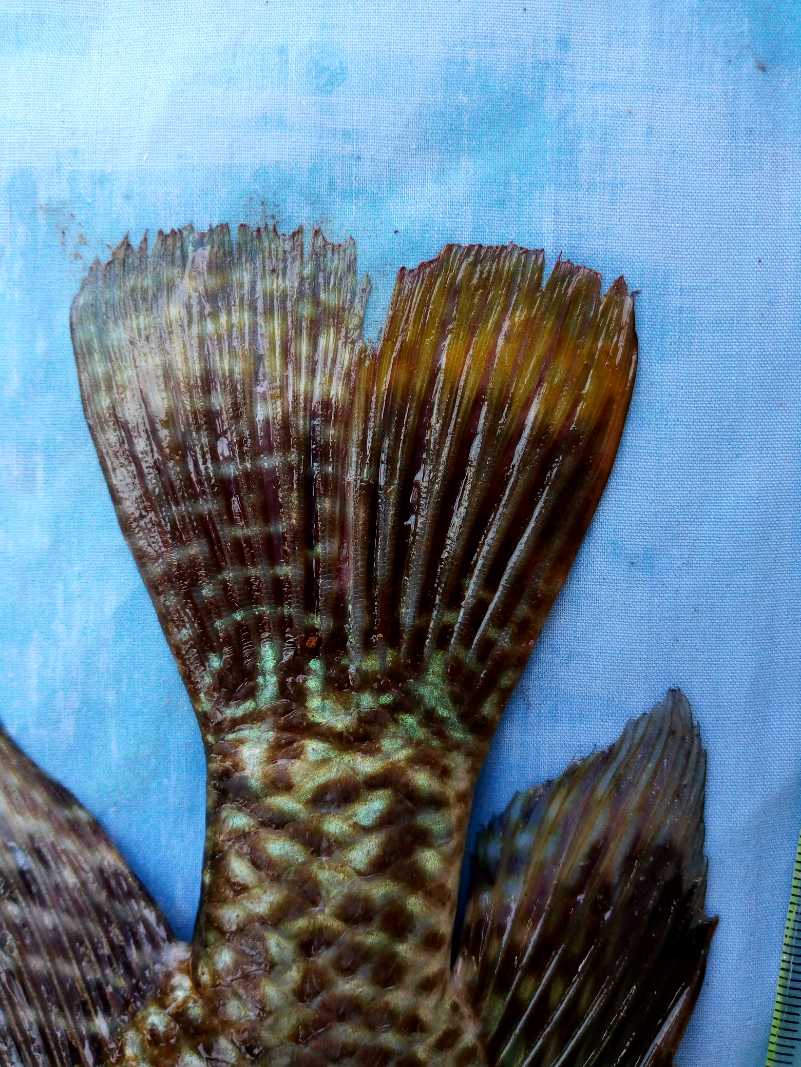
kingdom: Animalia
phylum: Chordata
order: Perciformes
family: Cichlidae
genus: Oreochromis
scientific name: Oreochromis spilurus
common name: Sabaki tilapia
